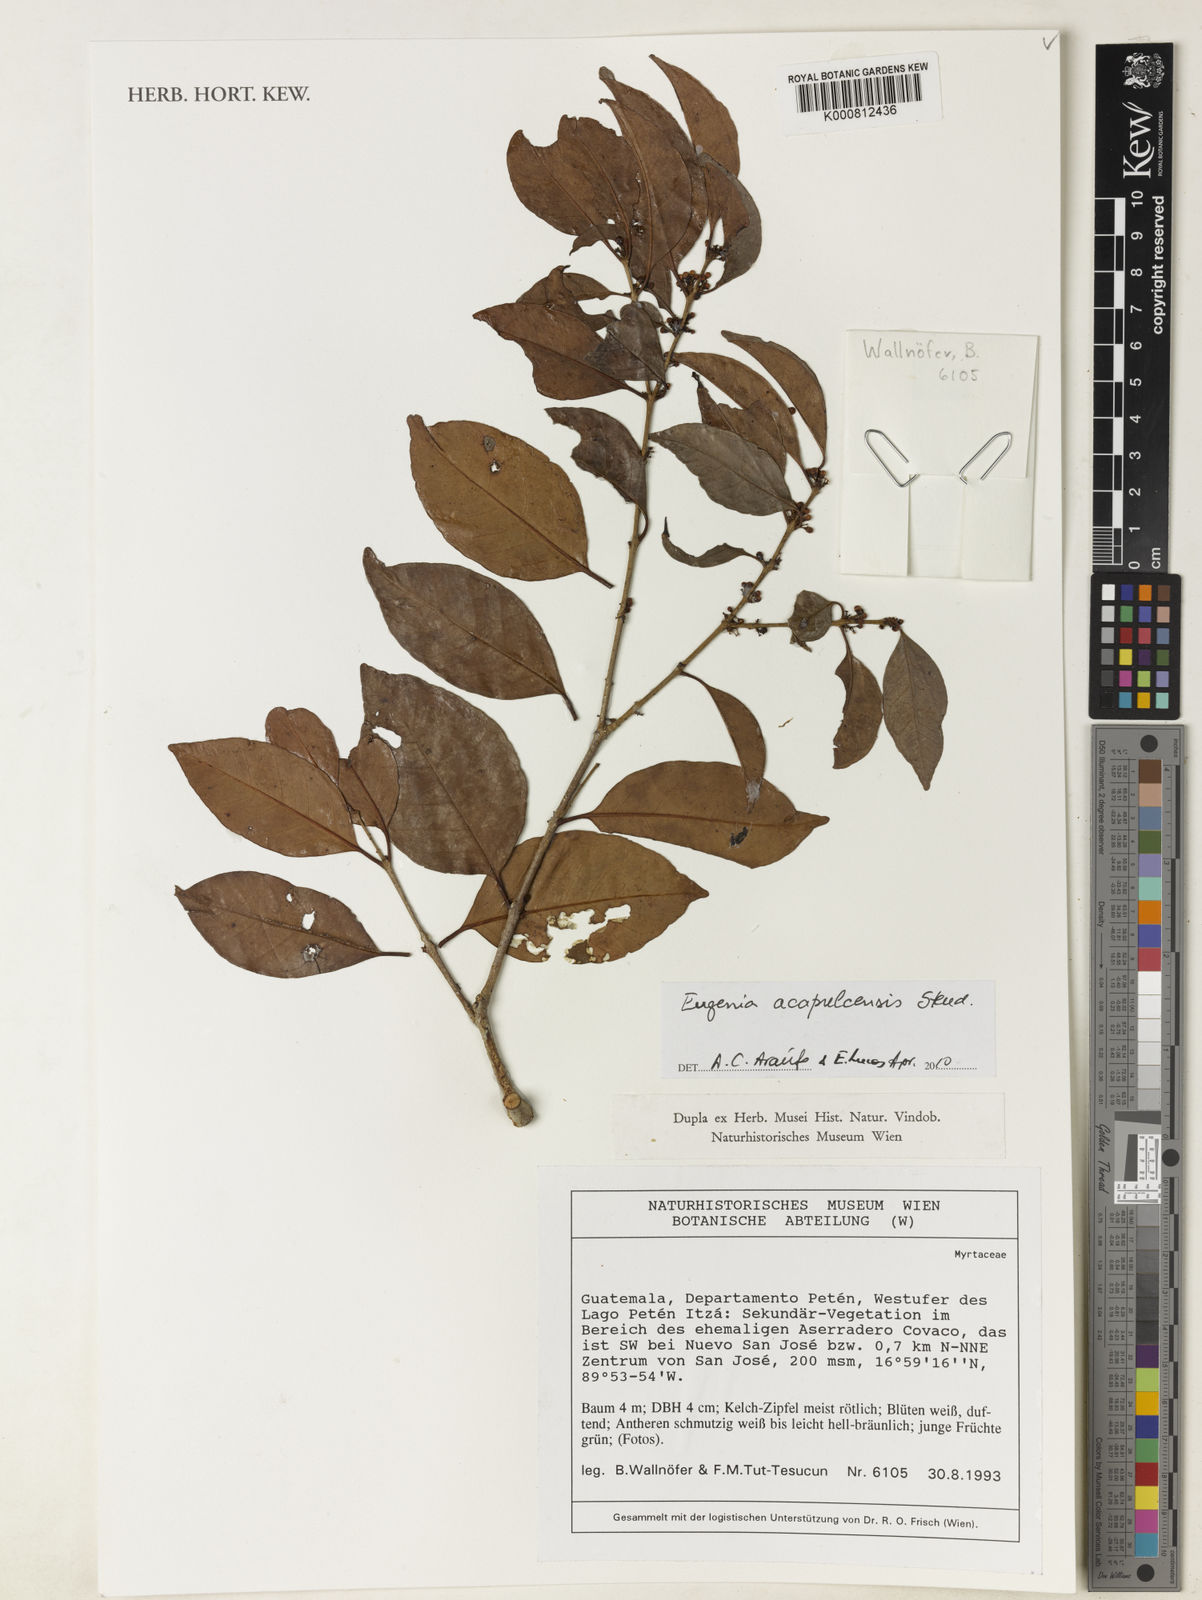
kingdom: Plantae
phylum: Tracheophyta
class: Magnoliopsida
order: Myrtales
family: Myrtaceae
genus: Eugenia
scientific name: Eugenia acapulcensis
